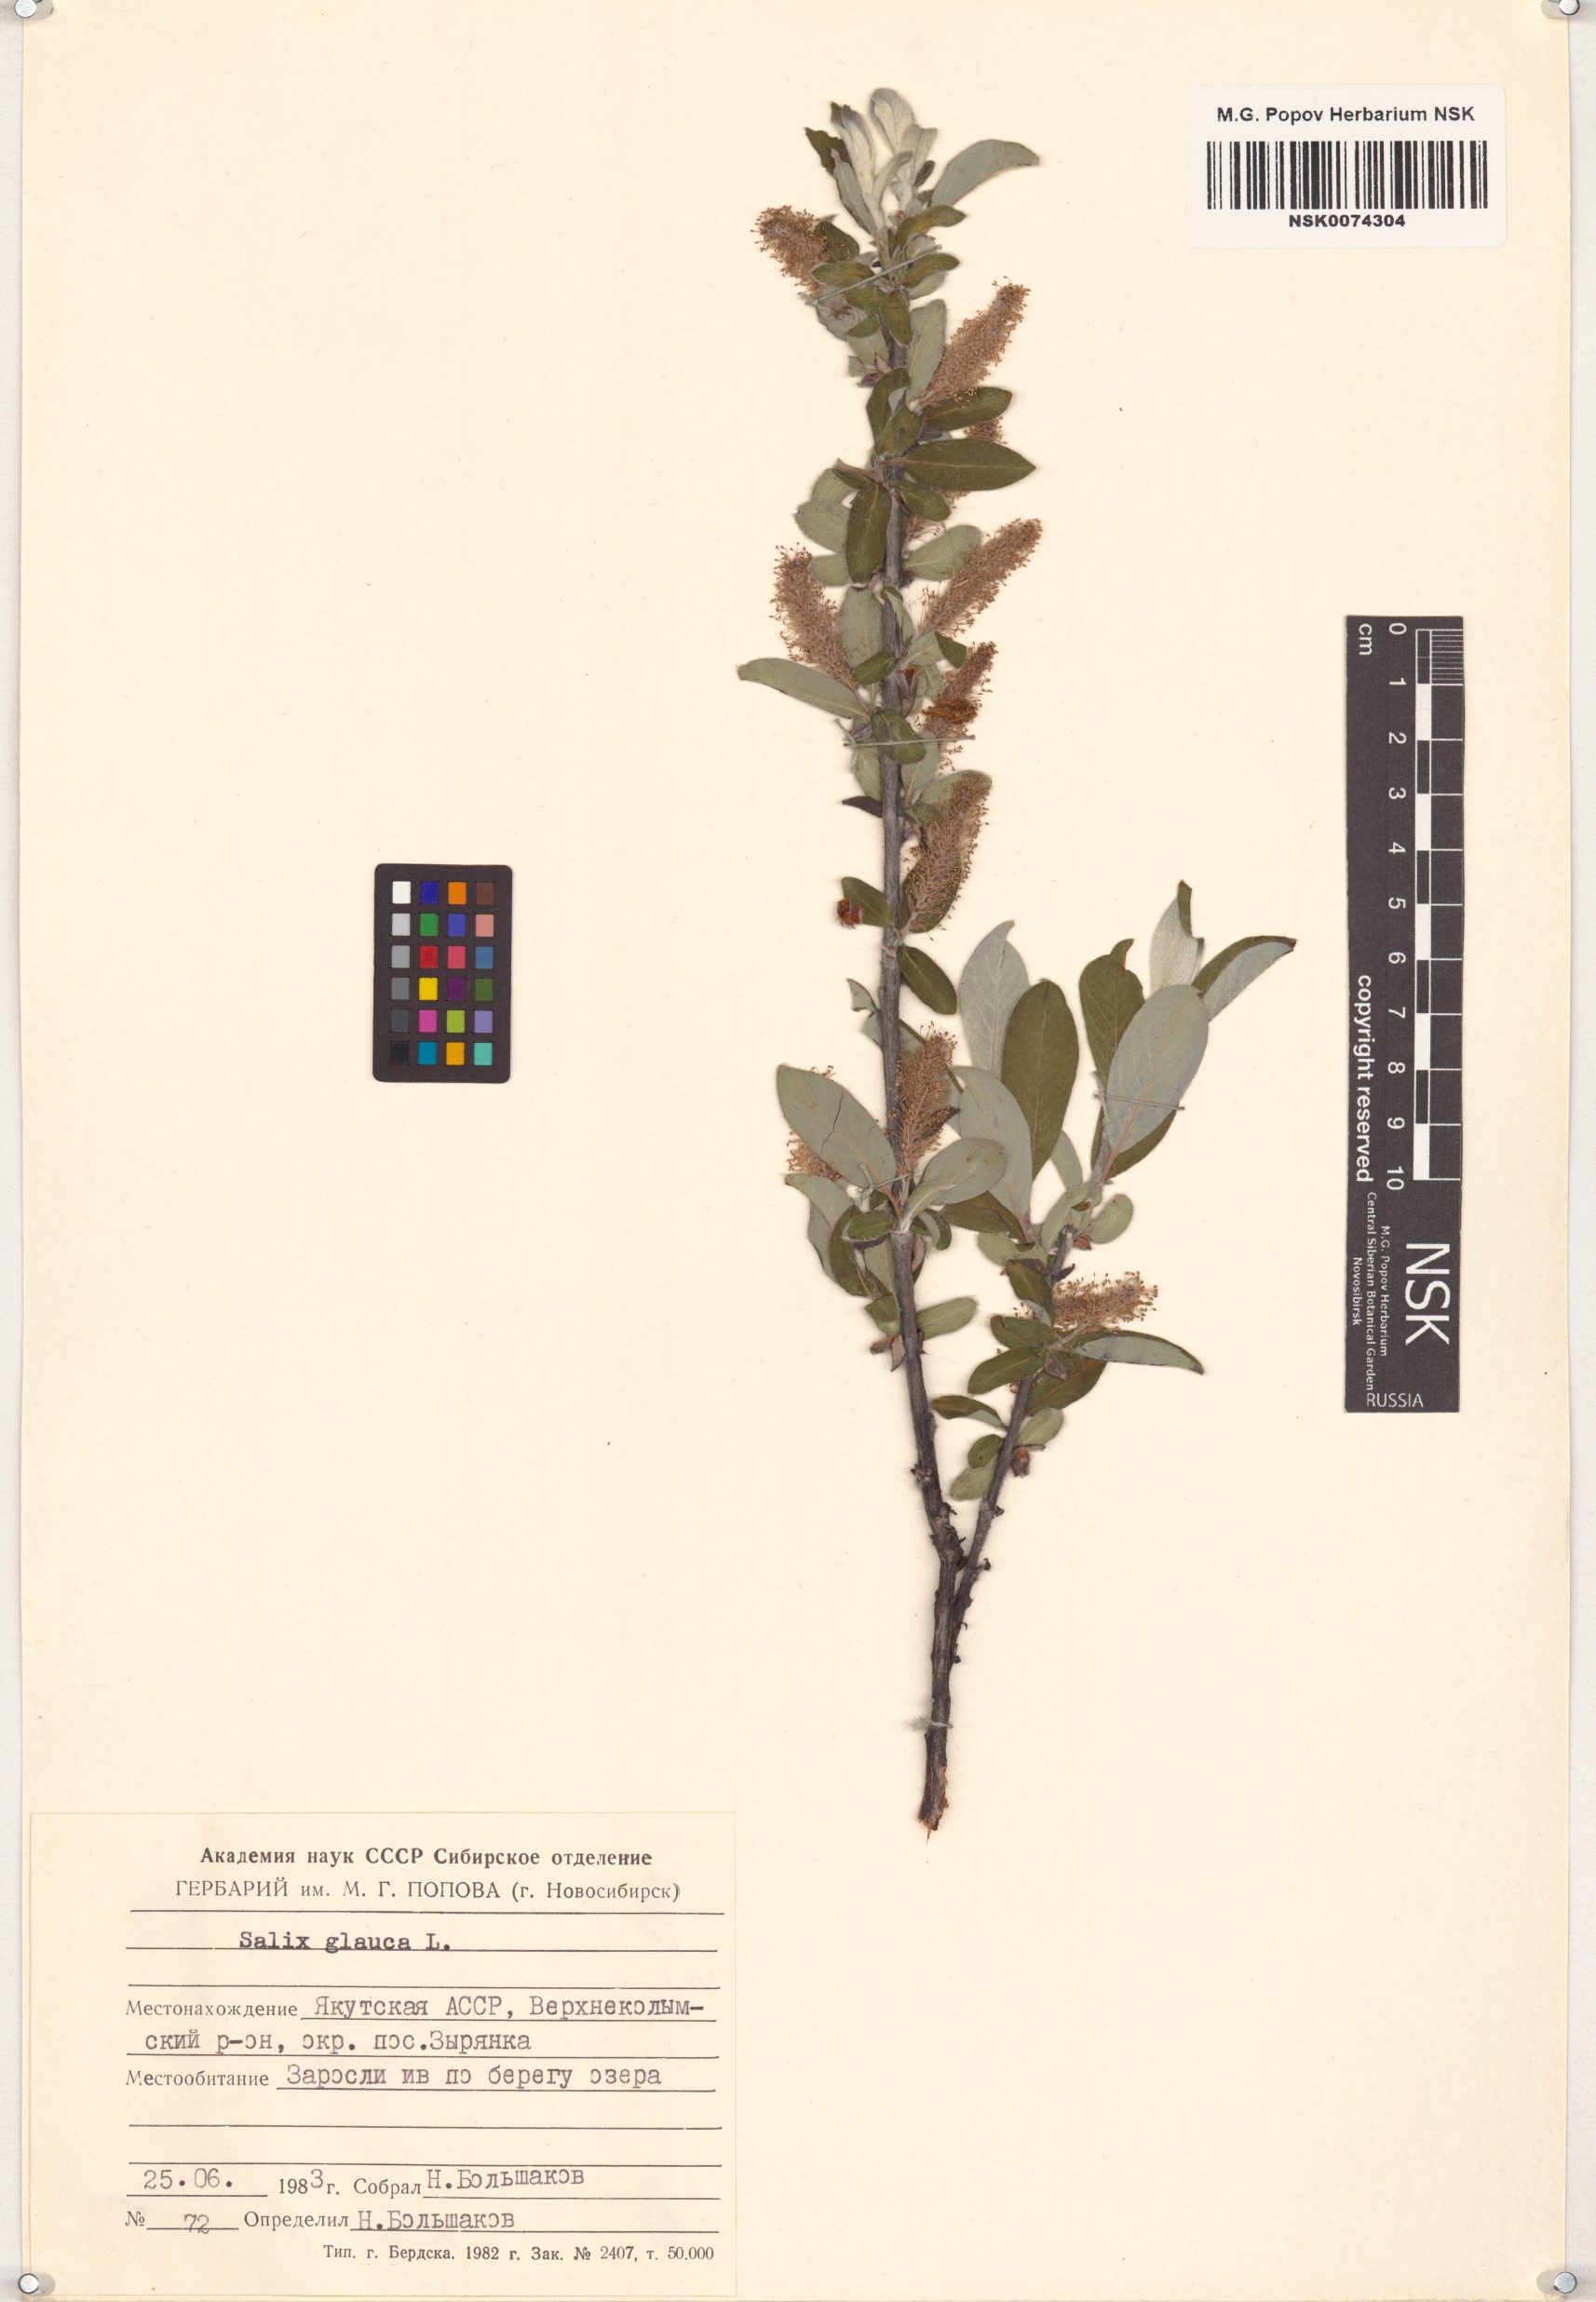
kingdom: Plantae
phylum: Tracheophyta
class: Magnoliopsida
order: Malpighiales
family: Salicaceae
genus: Salix
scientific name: Salix glauca
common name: Glaucous willow
